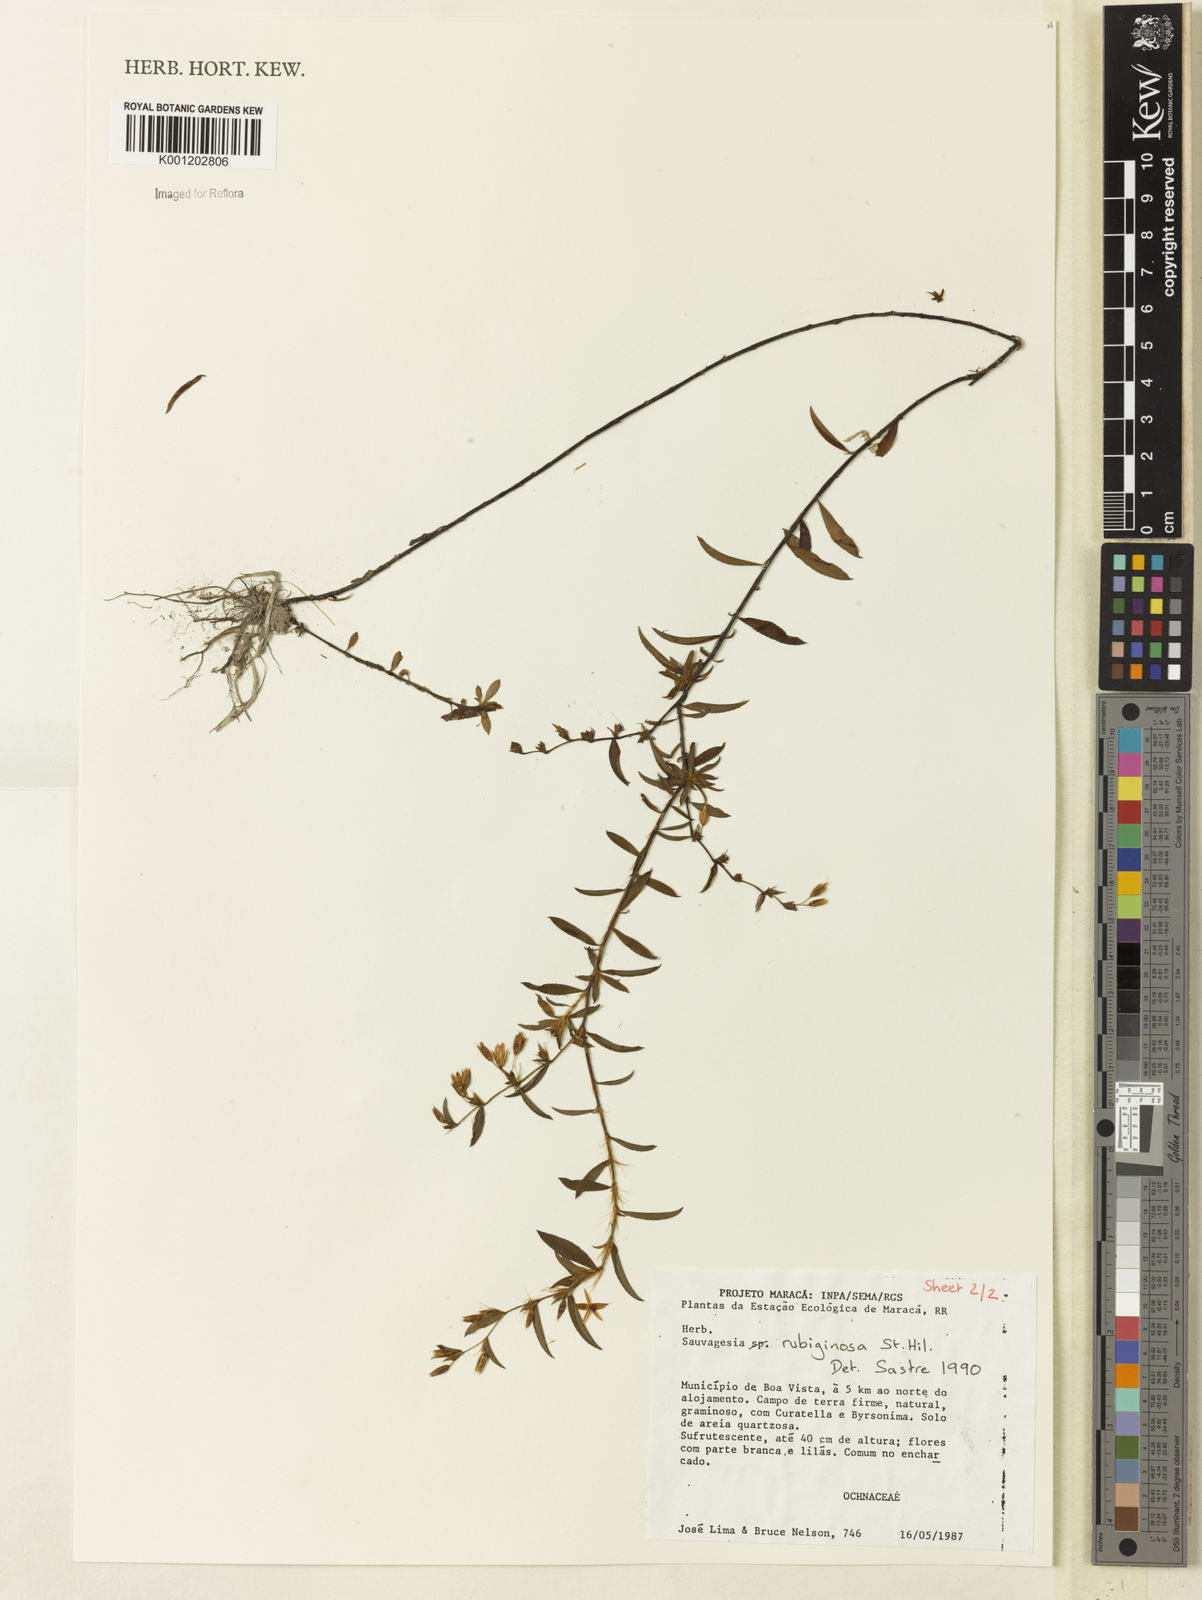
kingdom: Plantae
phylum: Tracheophyta
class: Magnoliopsida
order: Malpighiales
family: Ochnaceae
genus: Sauvagesia
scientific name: Sauvagesia rubiginosa
